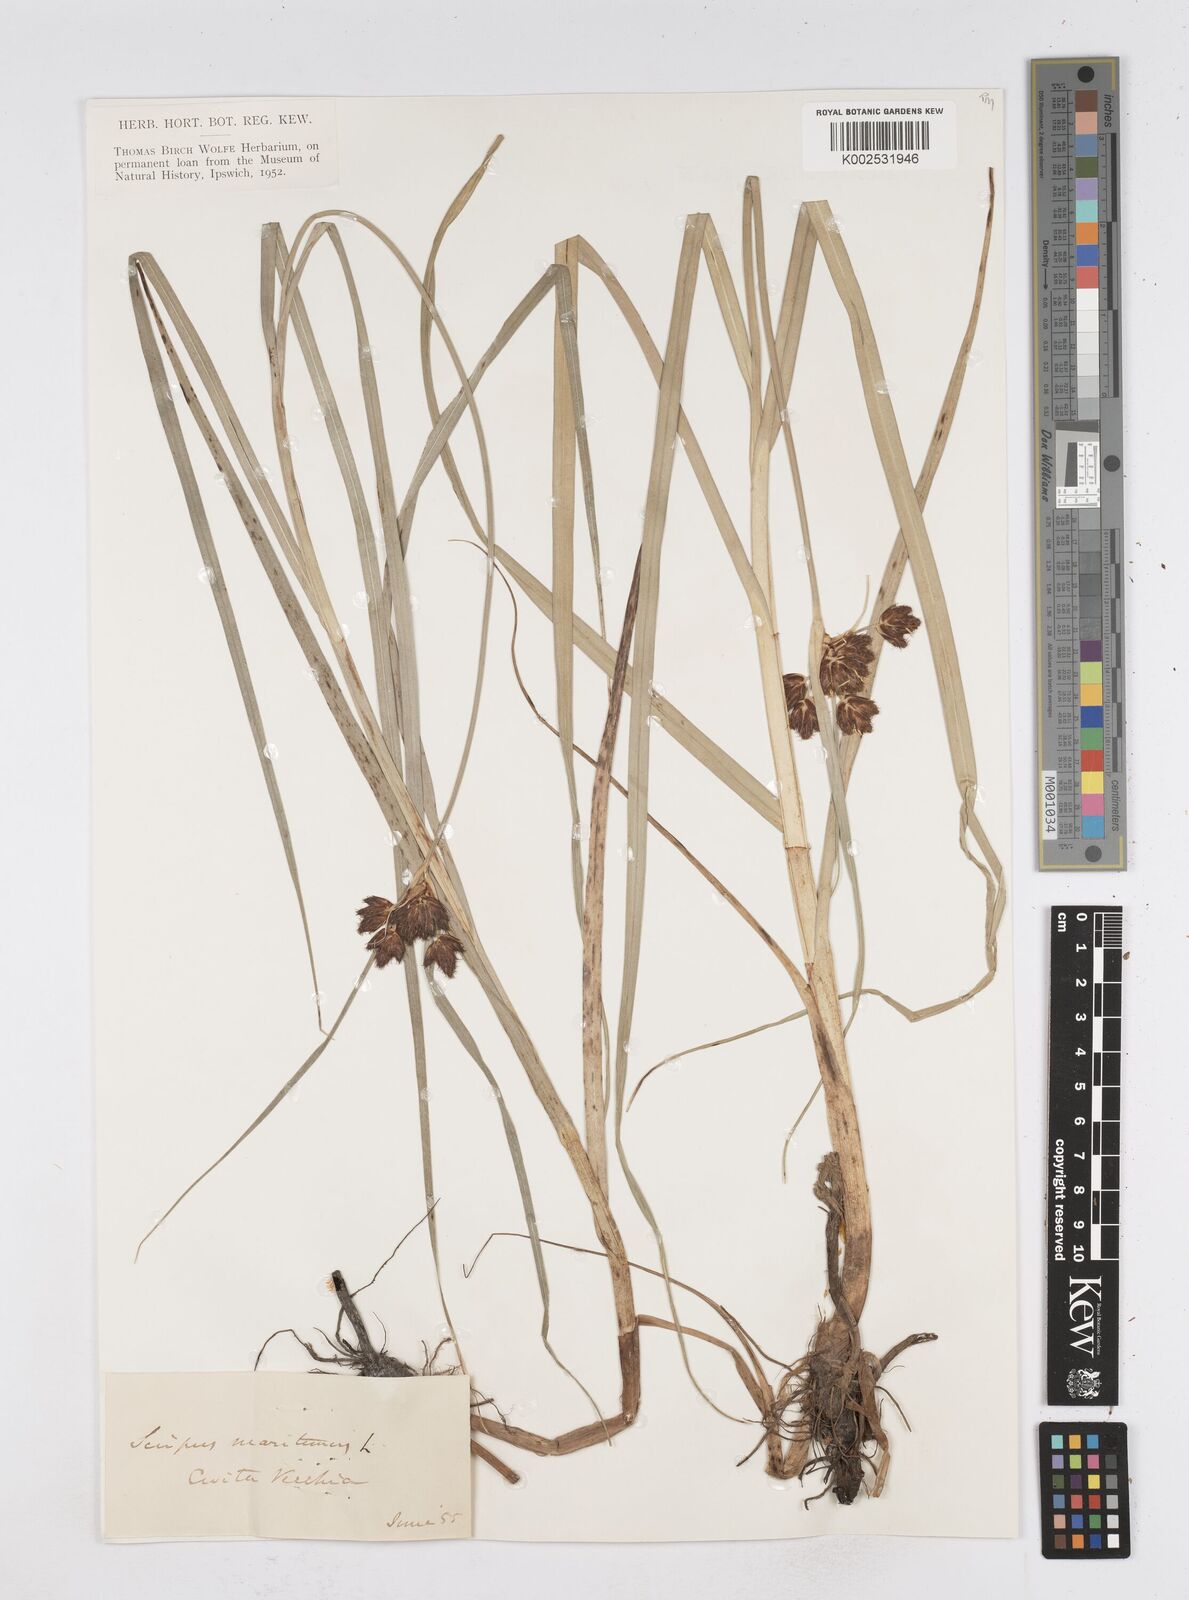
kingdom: Plantae
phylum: Tracheophyta
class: Liliopsida
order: Poales
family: Cyperaceae
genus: Bolboschoenus
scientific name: Bolboschoenus maritimus
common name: Sea club-rush
